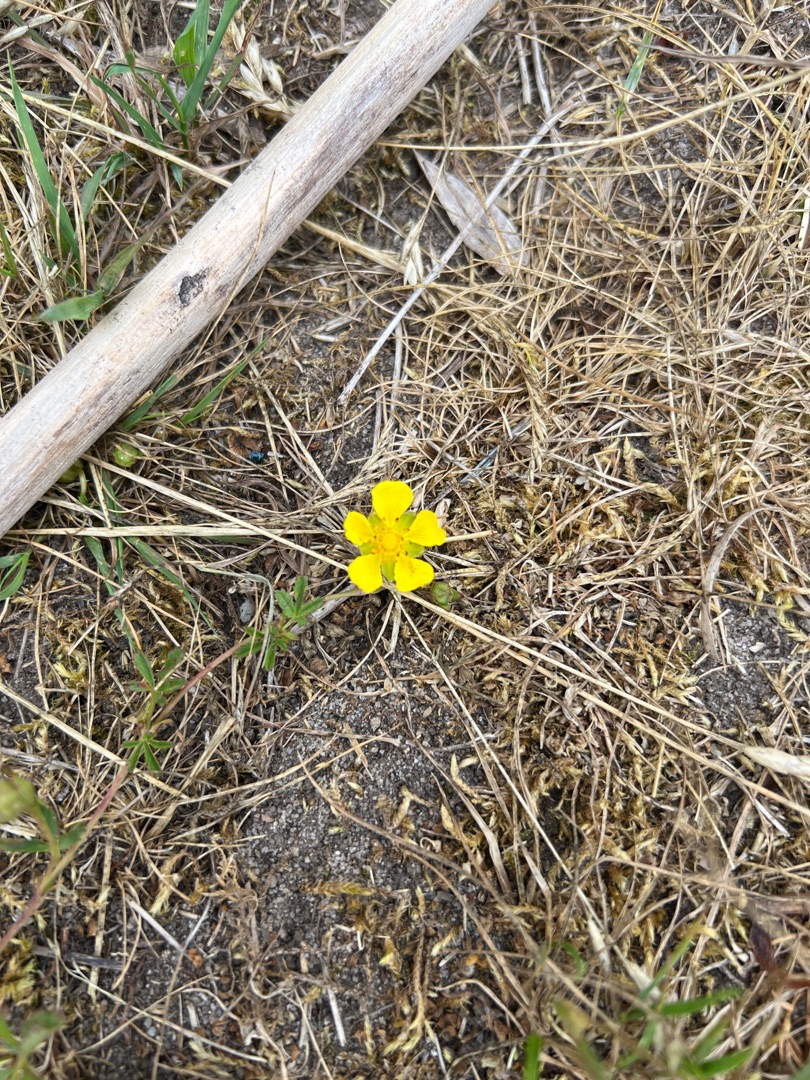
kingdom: Plantae
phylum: Tracheophyta
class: Magnoliopsida
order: Rosales
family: Rosaceae
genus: Potentilla
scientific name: Potentilla reptans
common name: Krybende potentil
